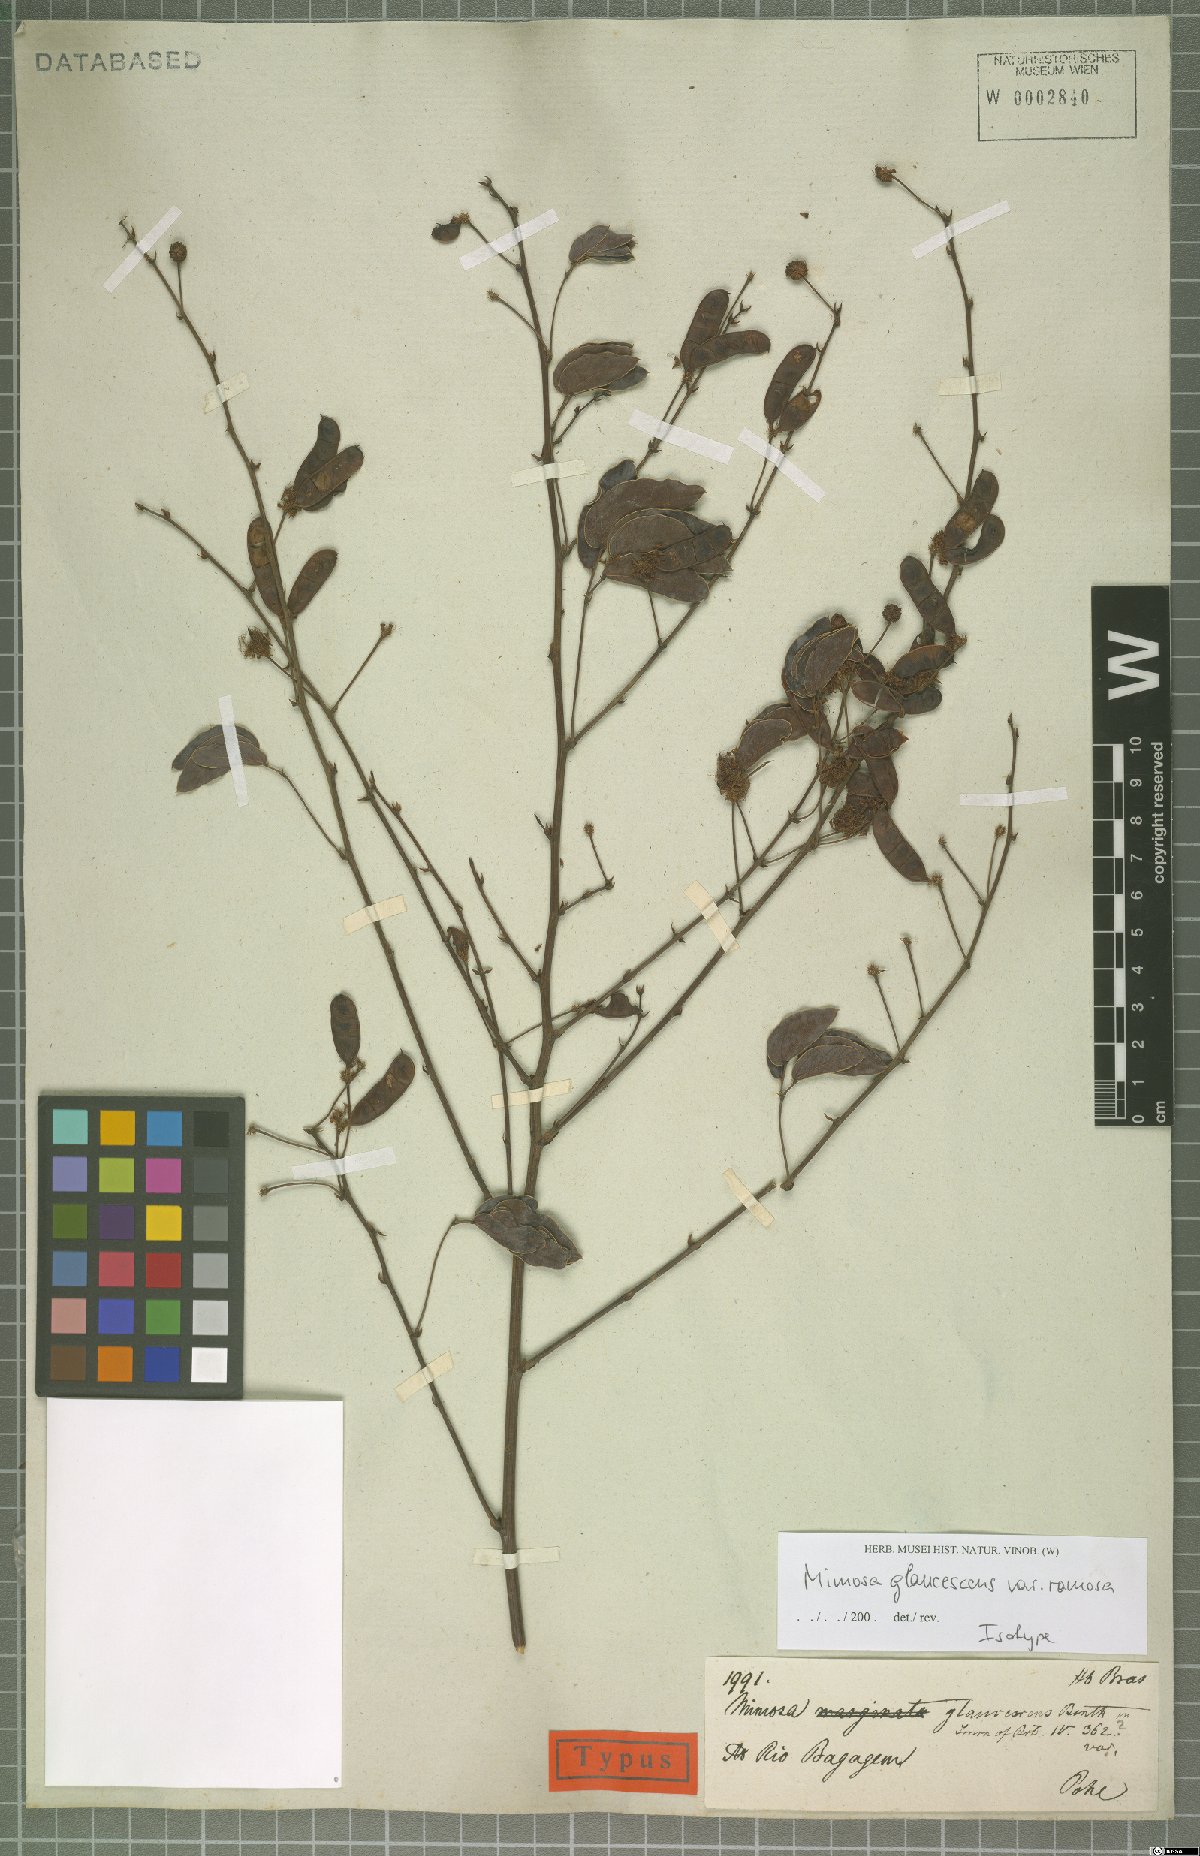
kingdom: Plantae
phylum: Tracheophyta
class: Magnoliopsida
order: Fabales
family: Fabaceae
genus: Mimosa
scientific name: Mimosa debilis
